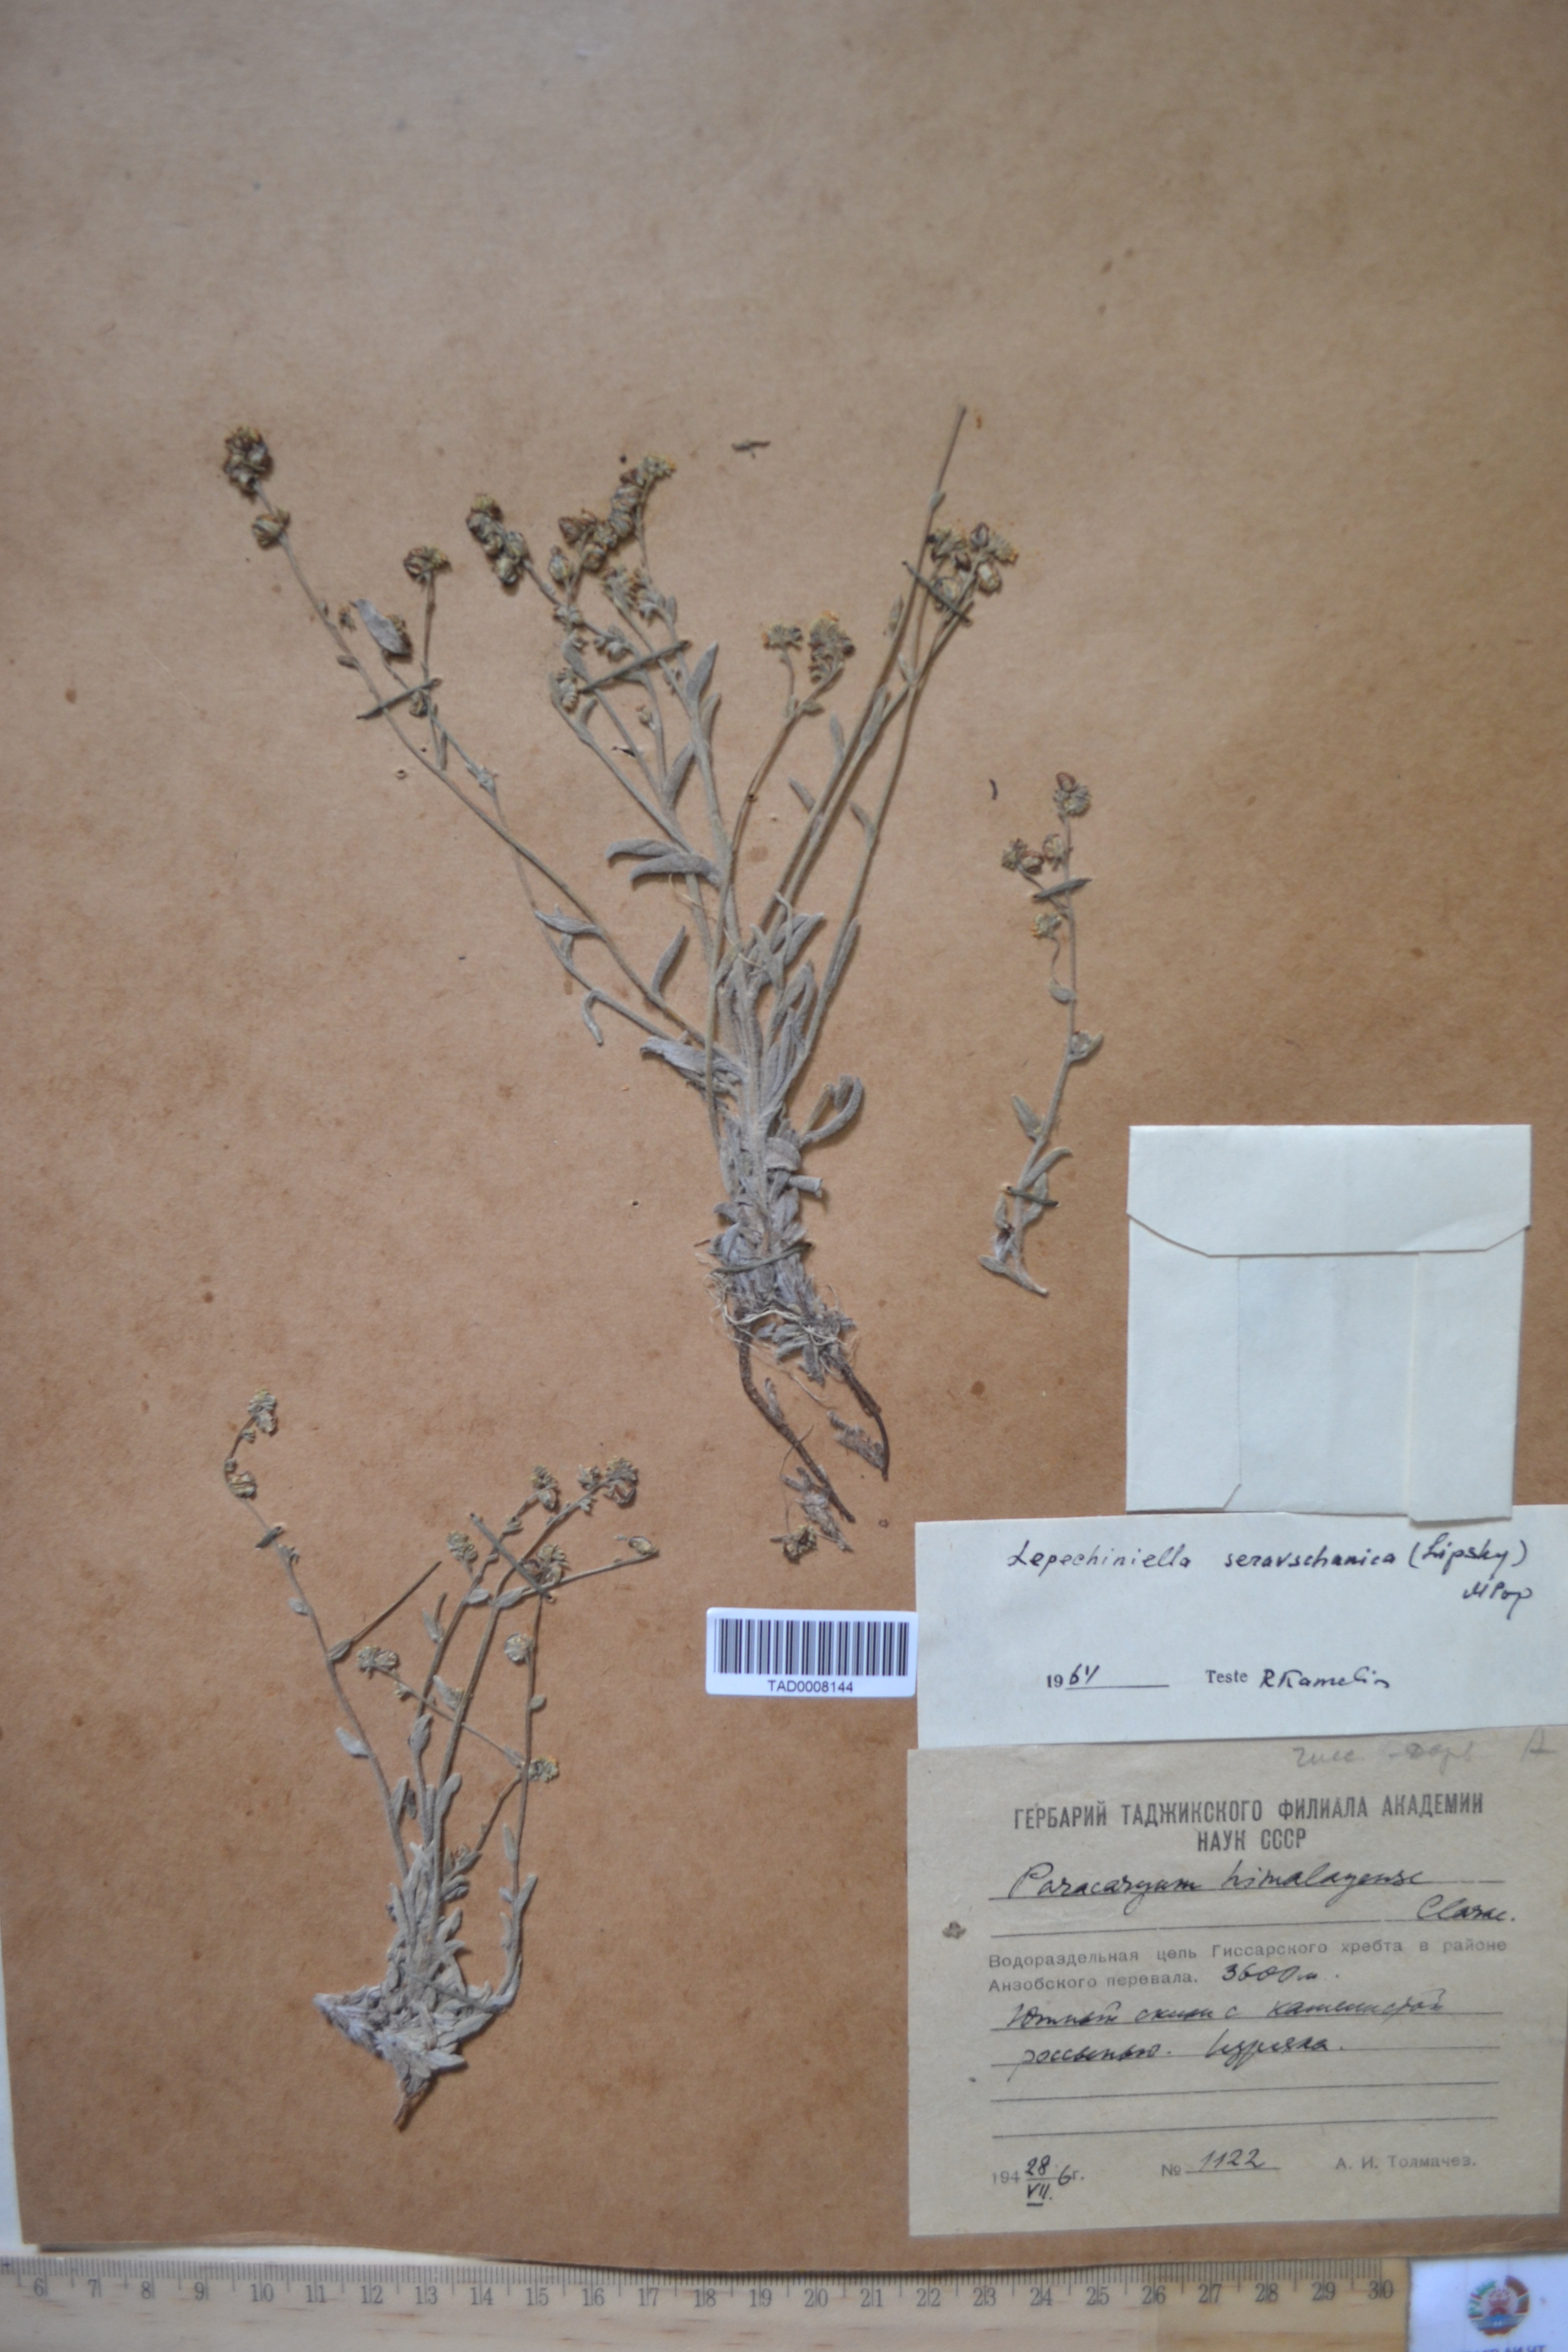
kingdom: Plantae
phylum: Tracheophyta
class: Magnoliopsida
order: Boraginales
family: Boraginaceae
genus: Paracaryum
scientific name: Paracaryum himalayense
